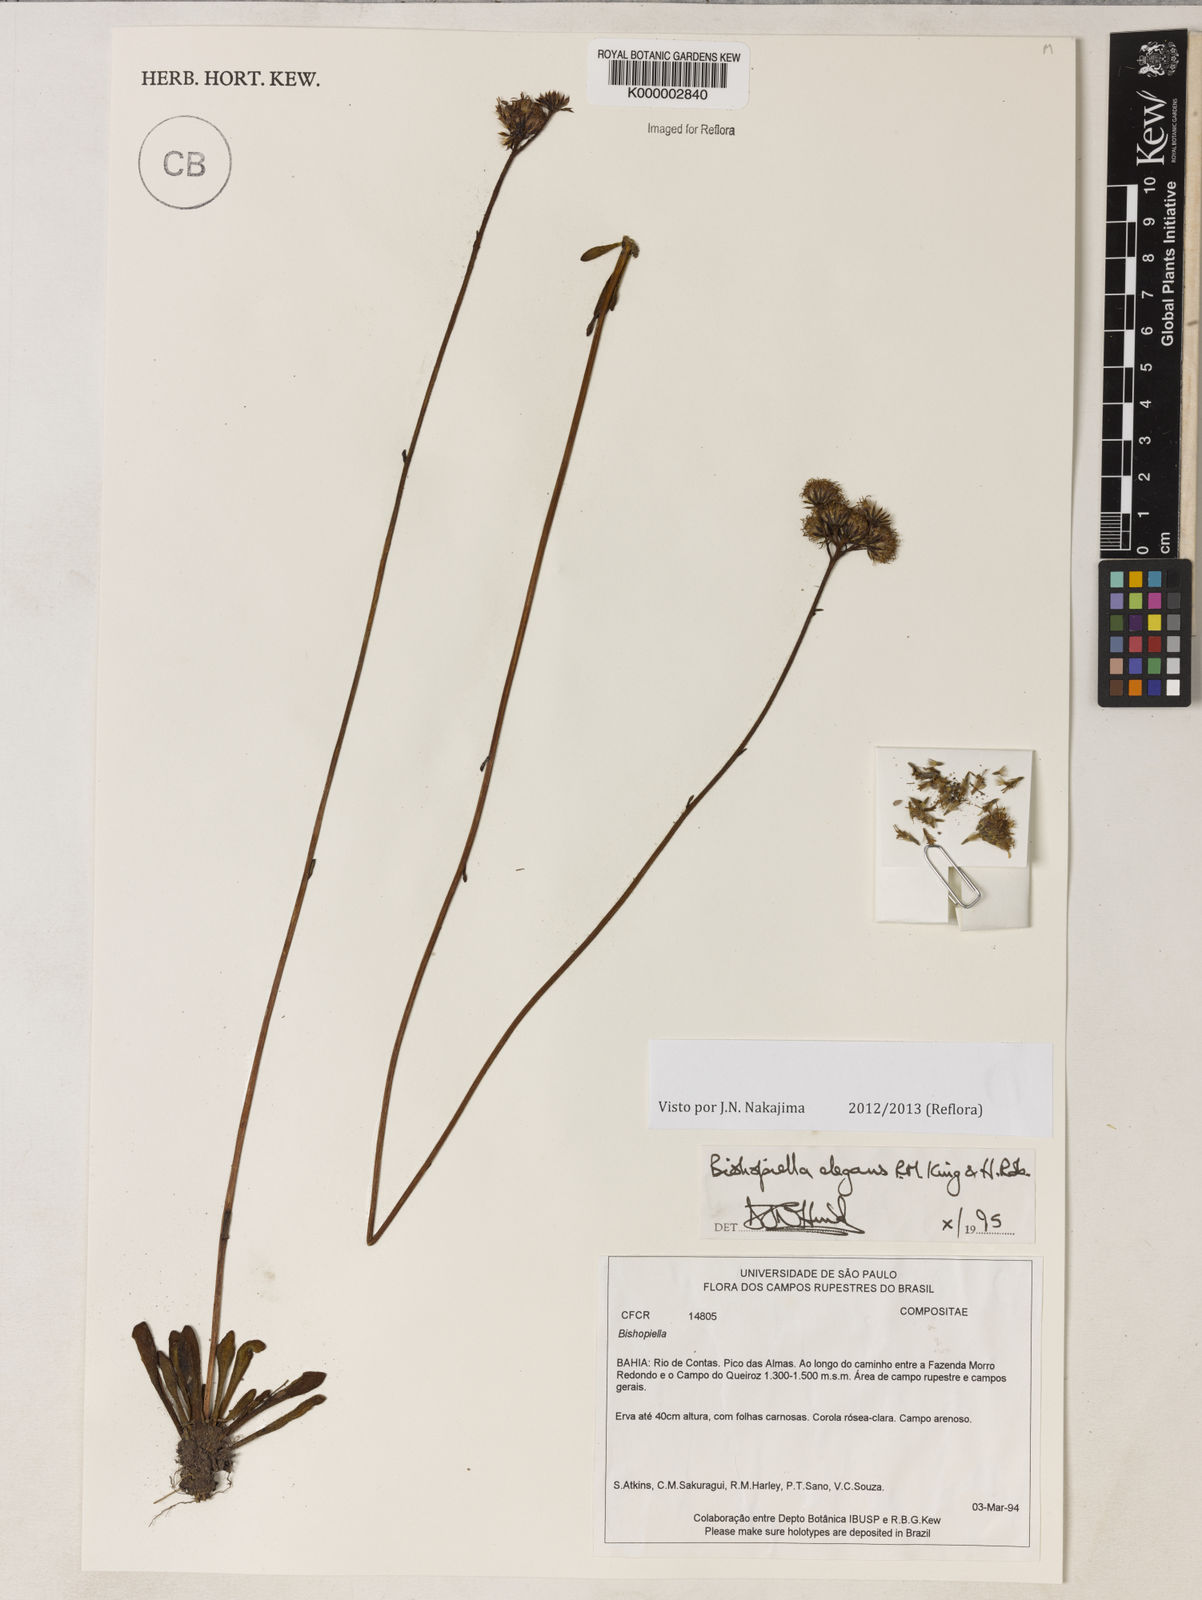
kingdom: Plantae
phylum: Tracheophyta
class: Magnoliopsida
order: Asterales
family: Asteraceae
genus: Bishopiella
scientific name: Bishopiella elegans
